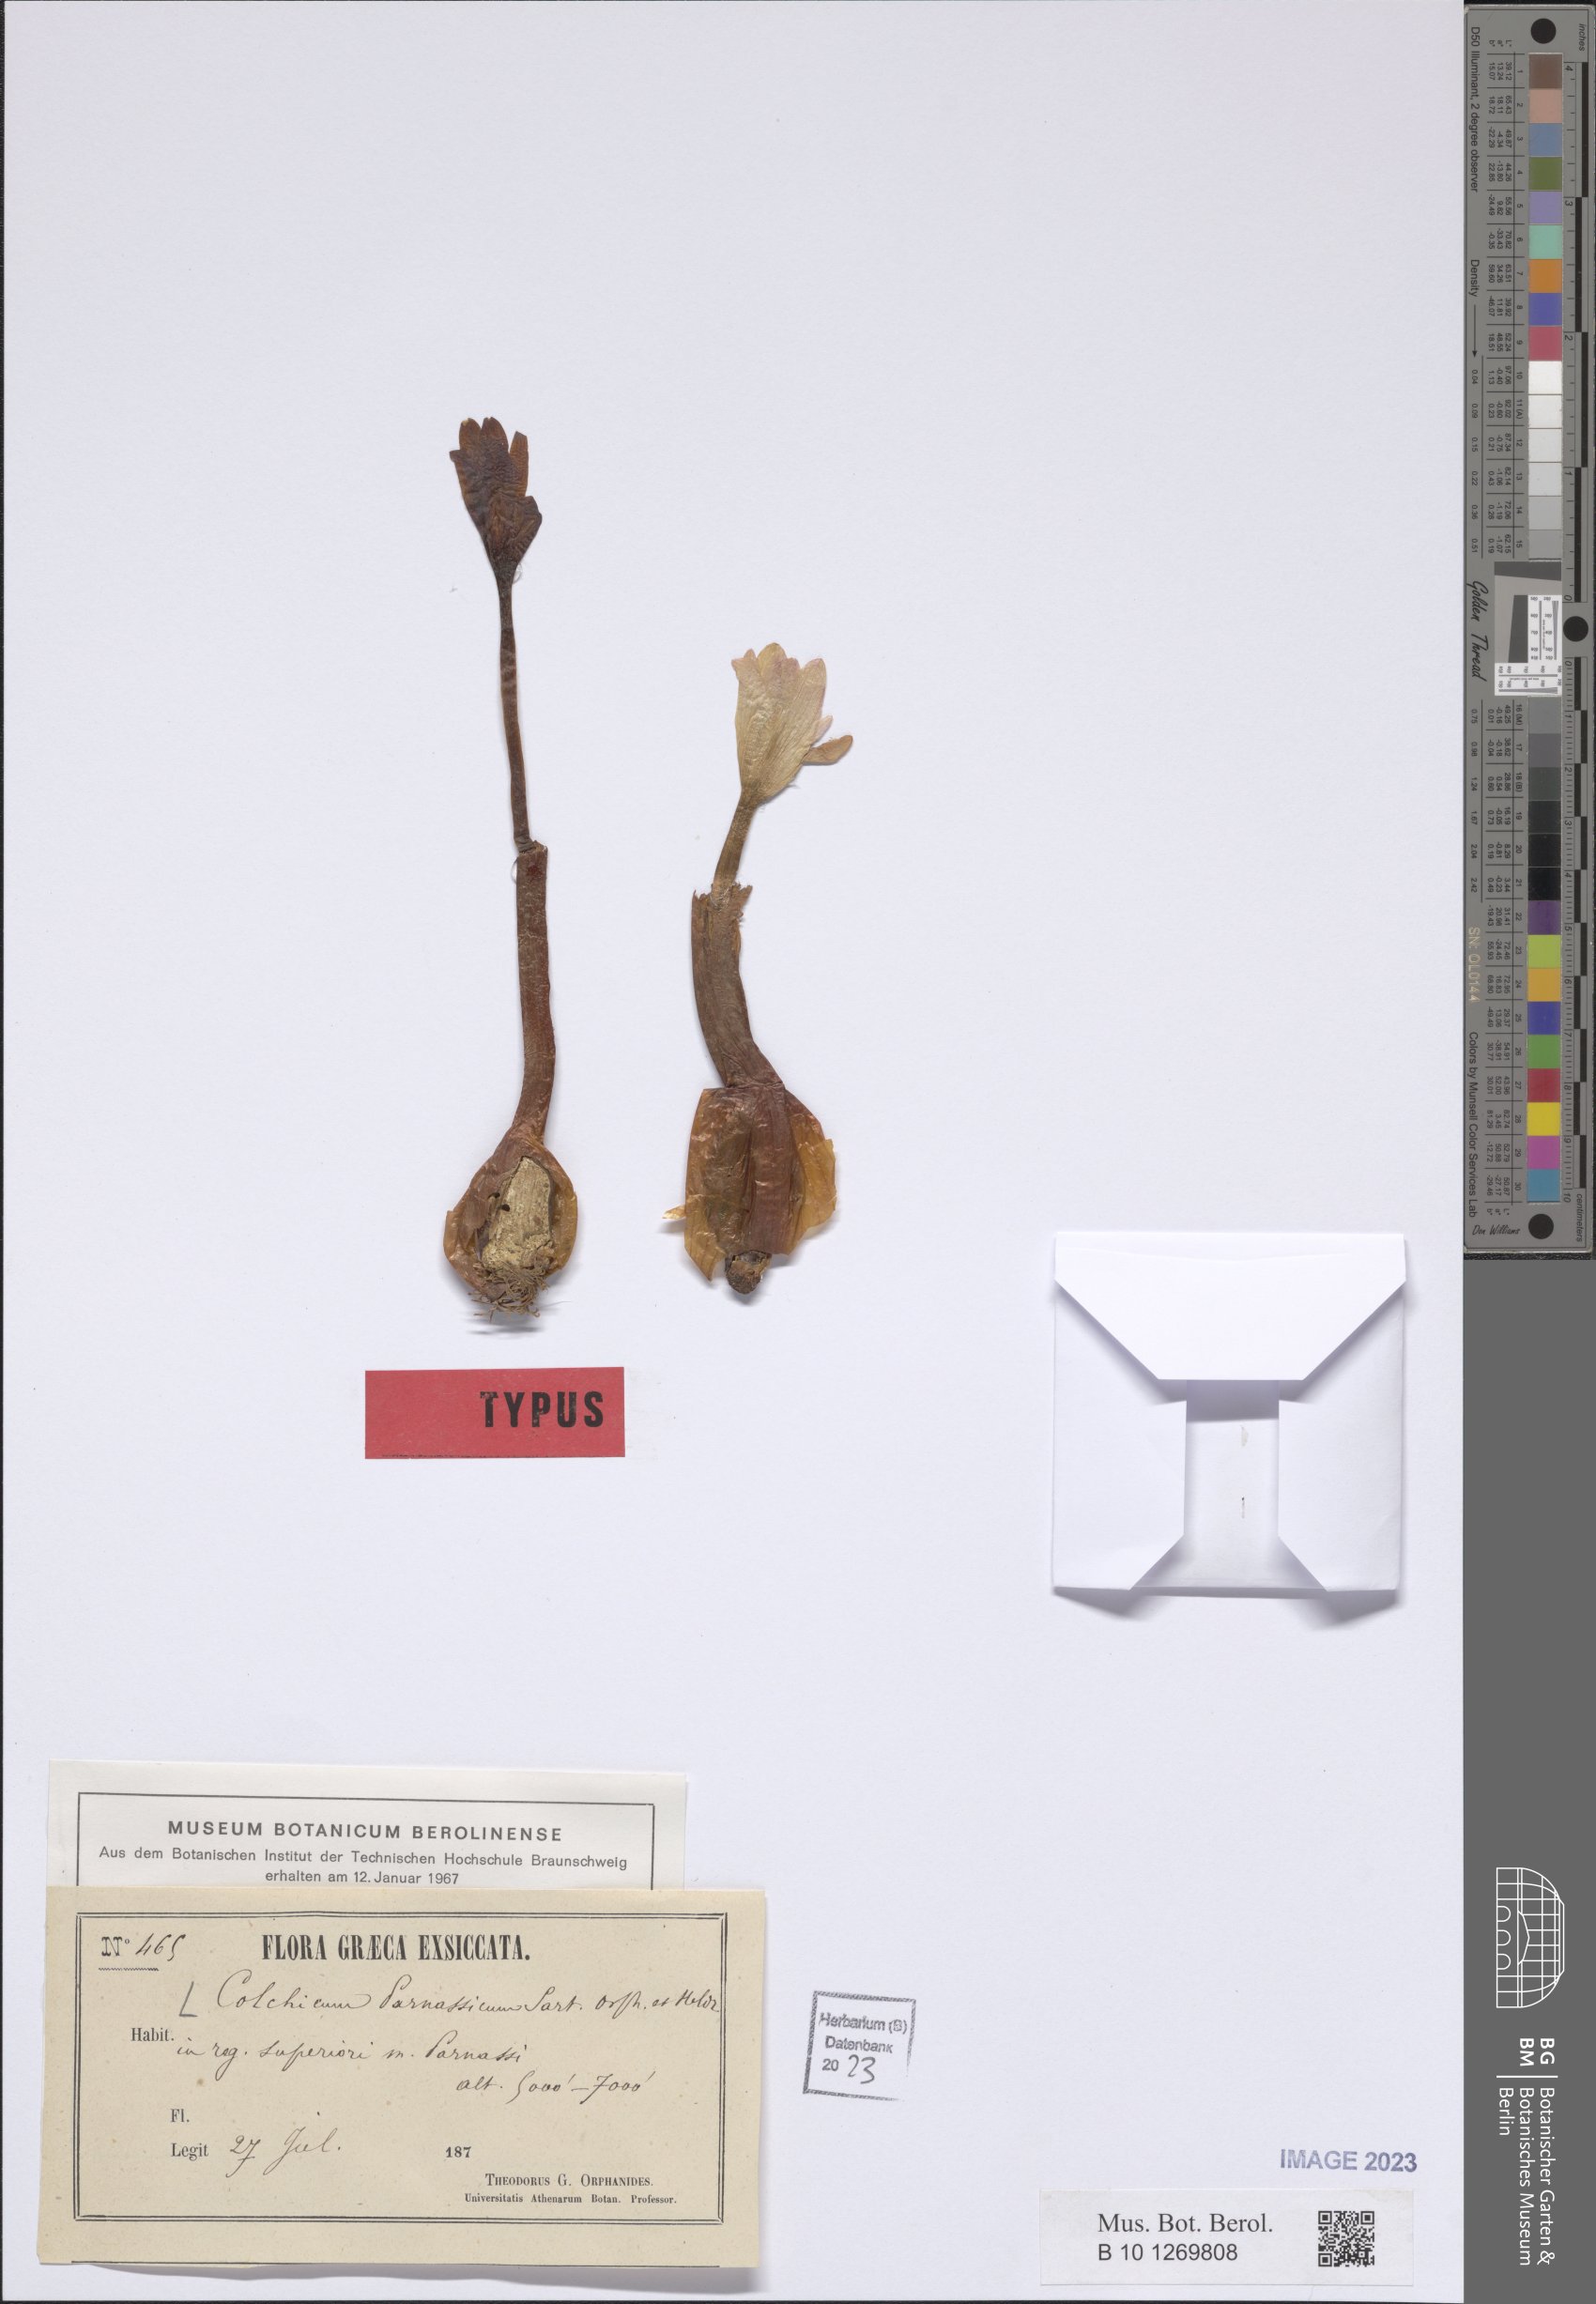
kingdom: Plantae
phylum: Tracheophyta
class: Liliopsida
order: Liliales
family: Colchicaceae
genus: Colchicum
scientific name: Colchicum parnassicum
